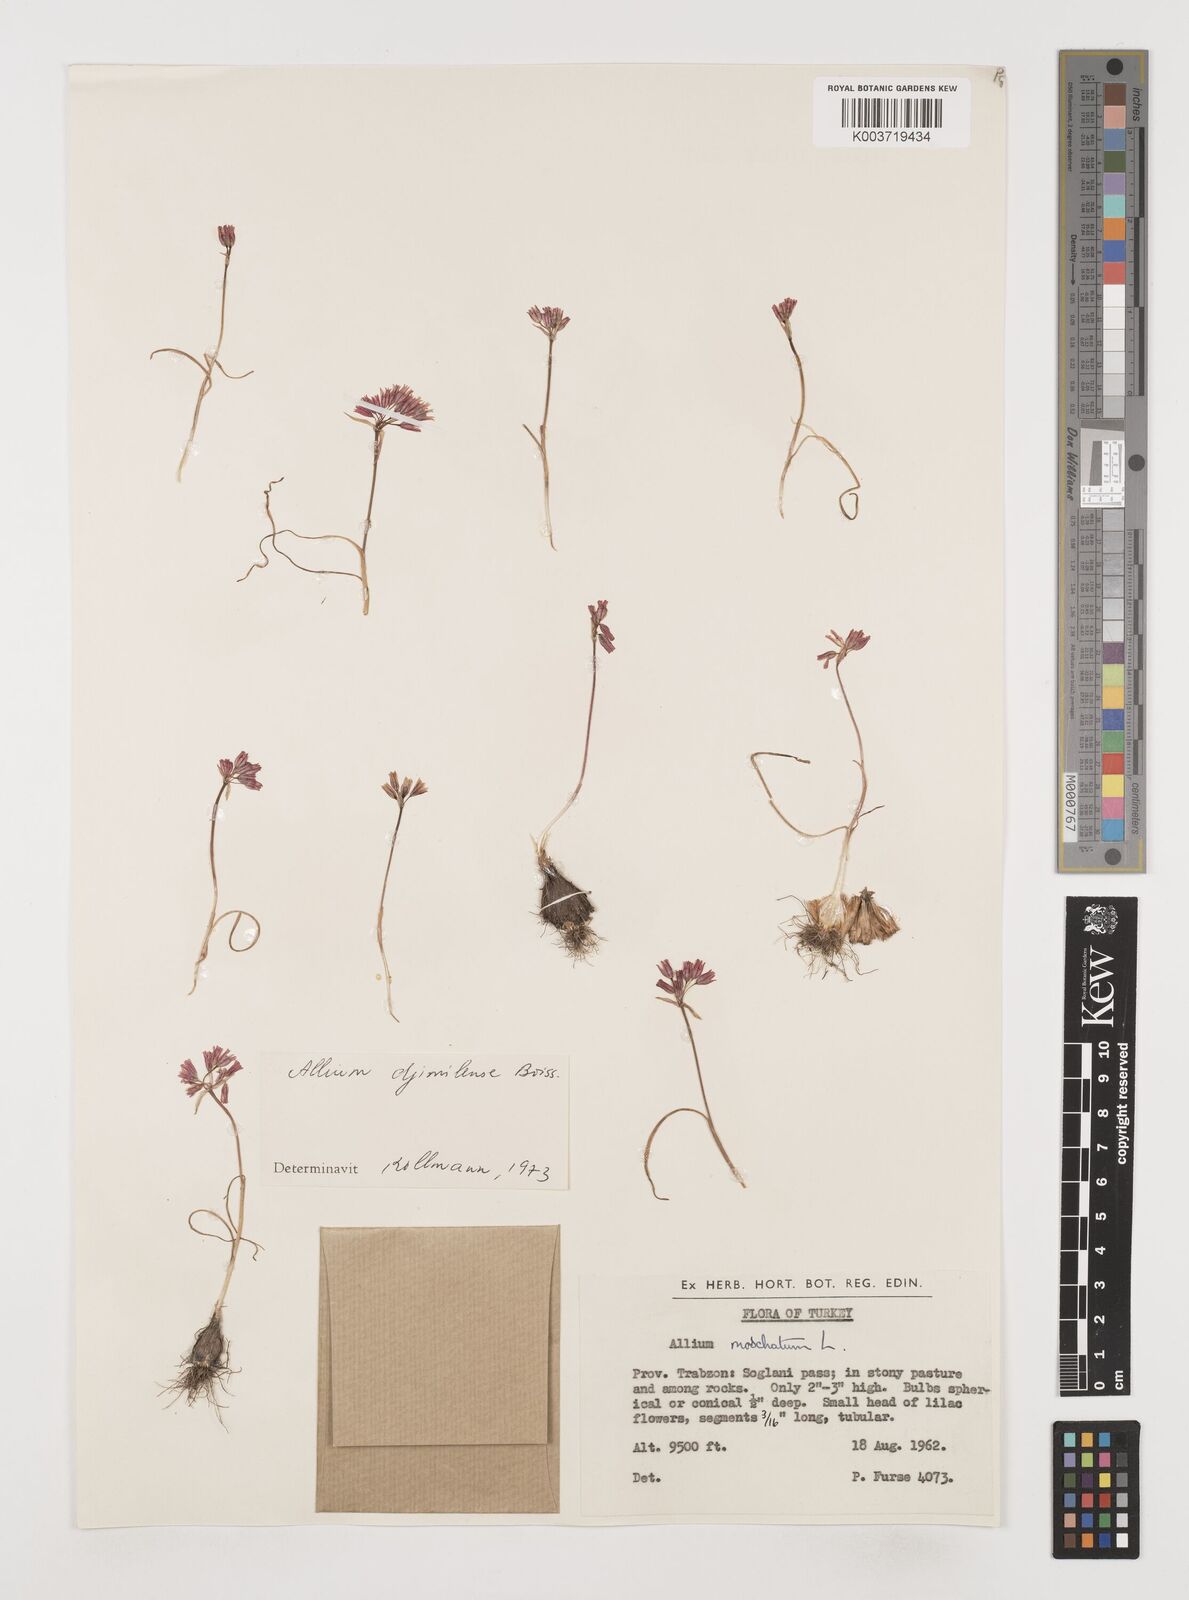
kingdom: Plantae
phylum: Tracheophyta
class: Liliopsida
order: Asparagales
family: Amaryllidaceae
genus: Allium
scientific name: Allium djimilense
